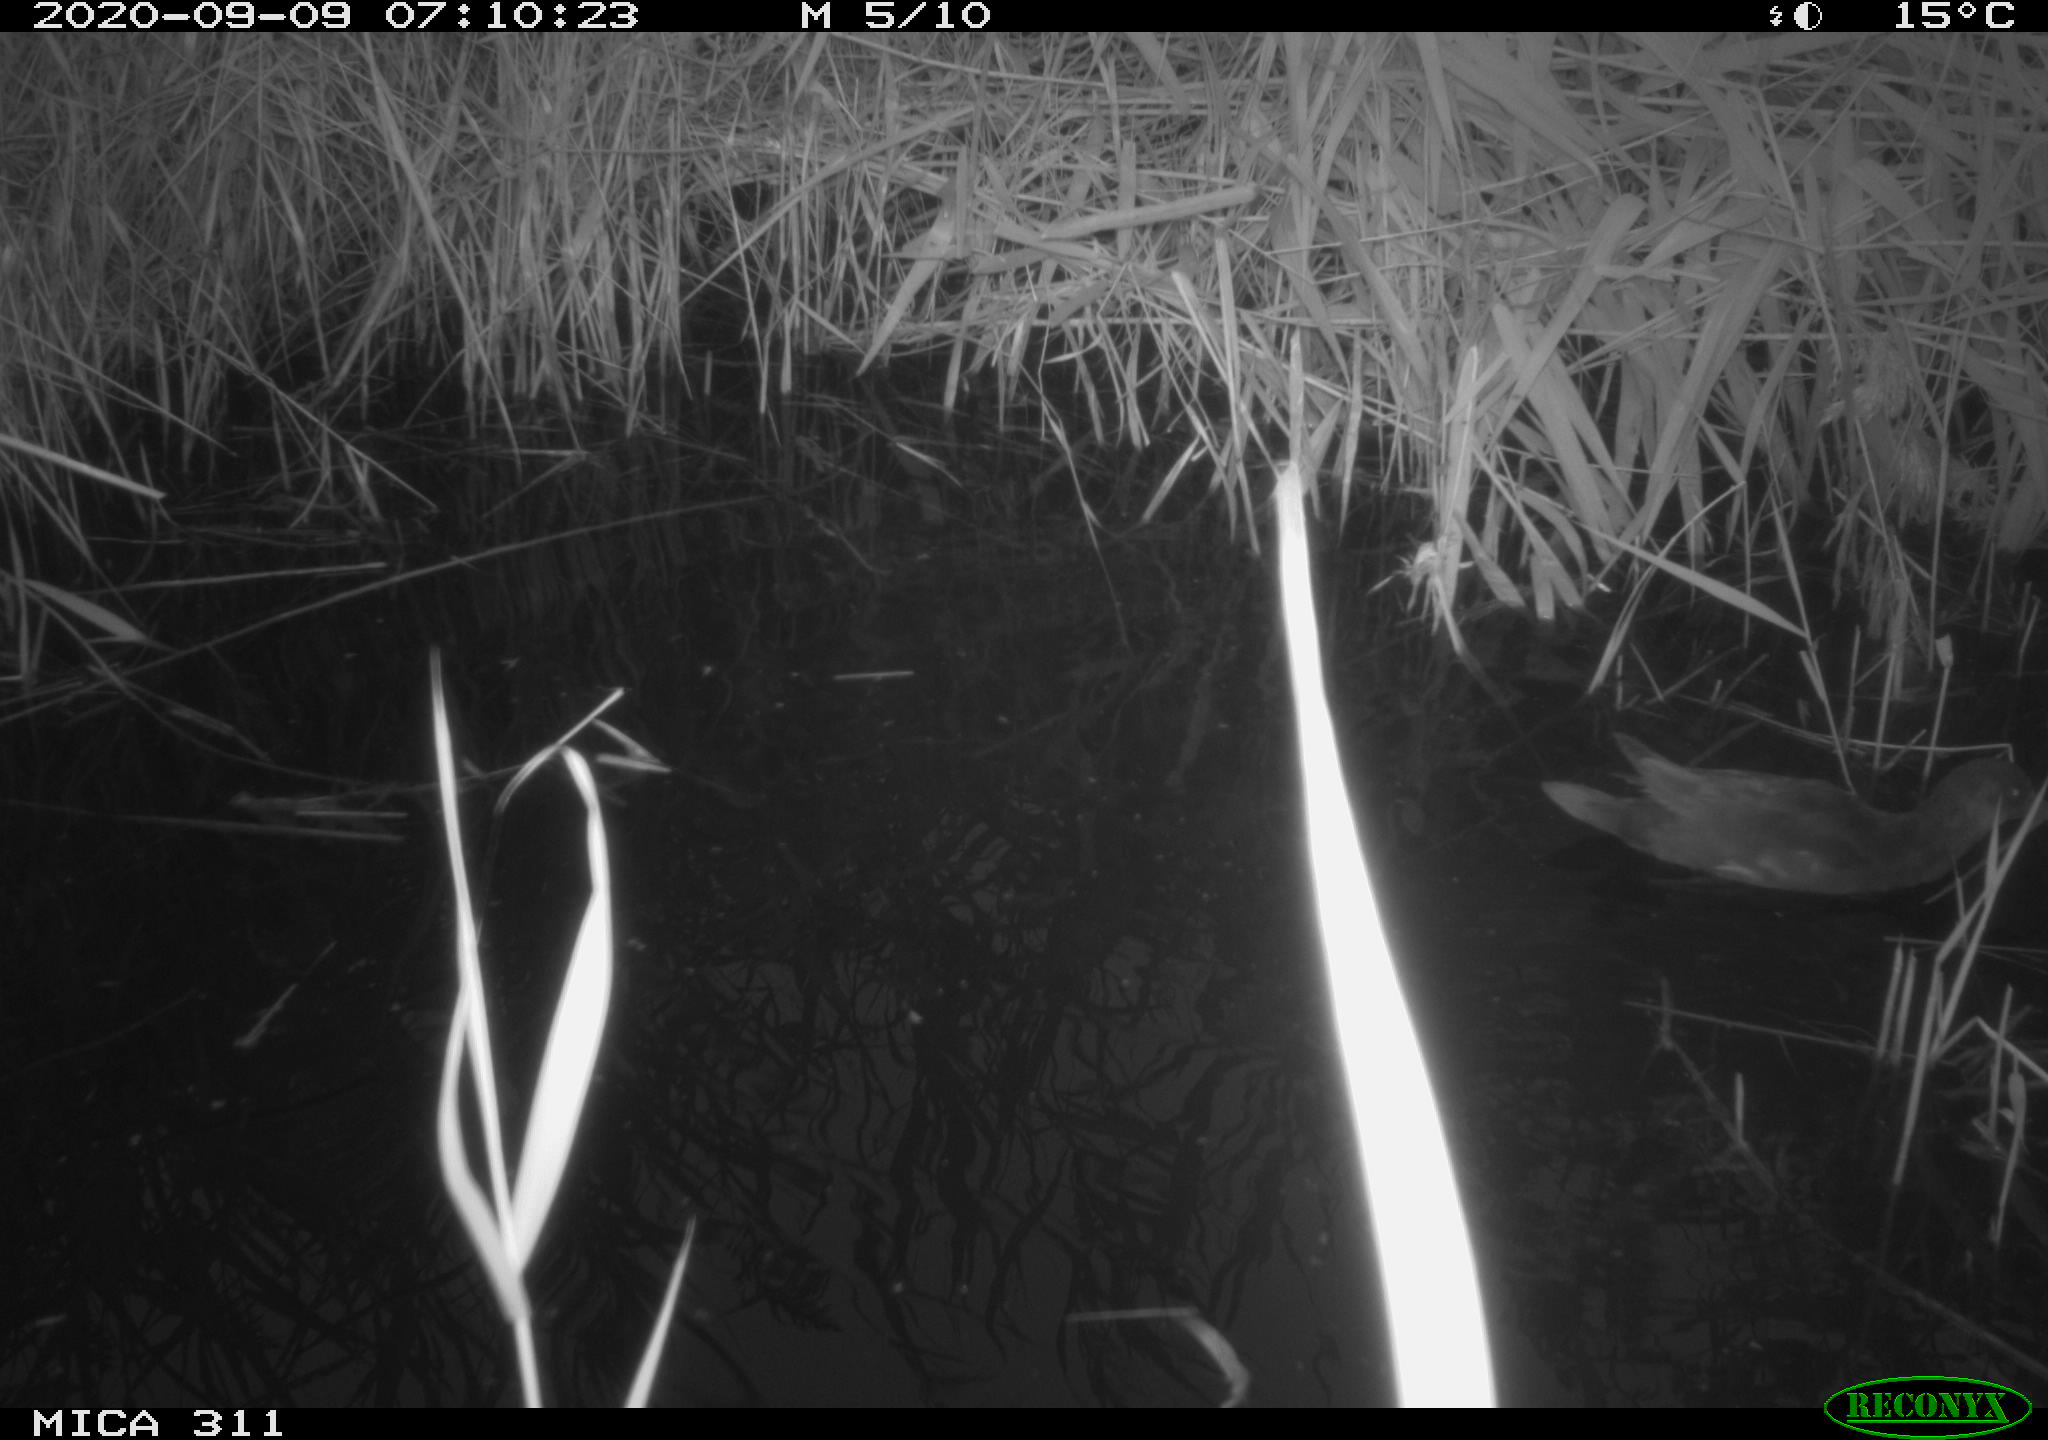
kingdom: Animalia
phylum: Chordata
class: Aves
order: Gruiformes
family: Rallidae
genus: Gallinula
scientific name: Gallinula chloropus
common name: Common moorhen
